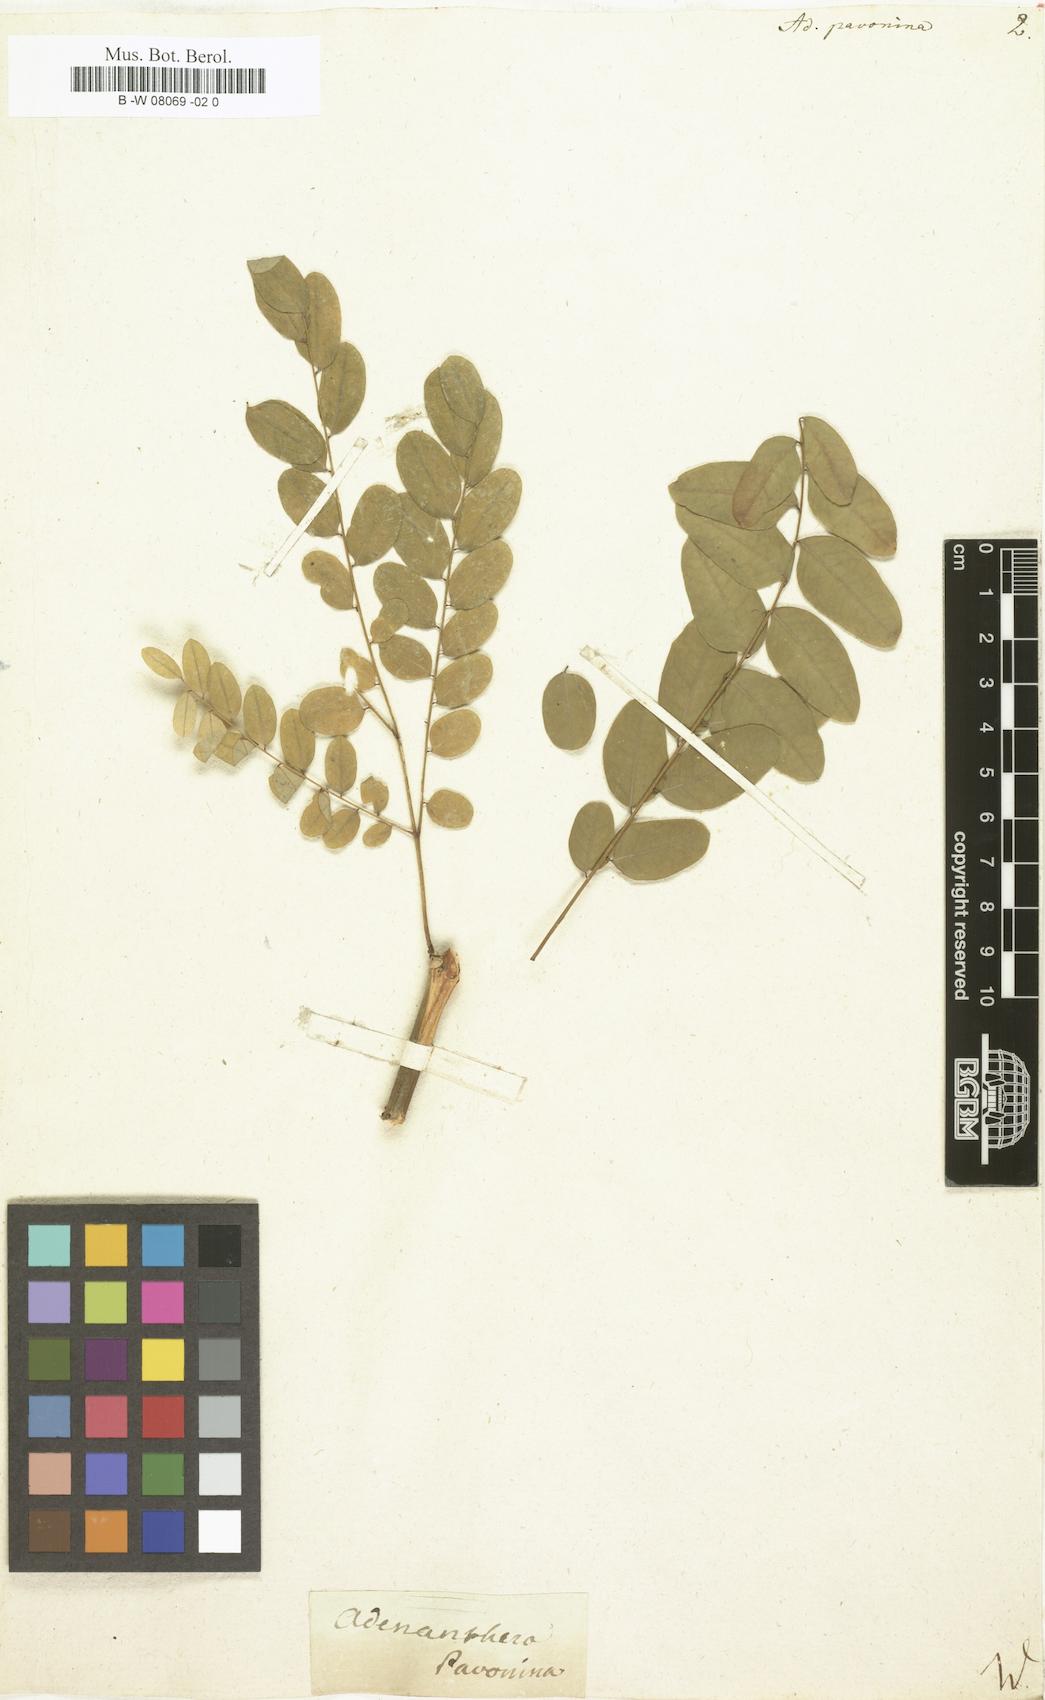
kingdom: Plantae
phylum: Tracheophyta
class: Magnoliopsida
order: Fabales
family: Fabaceae
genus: Adenanthera
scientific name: Adenanthera pavonina
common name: Red beadtree
